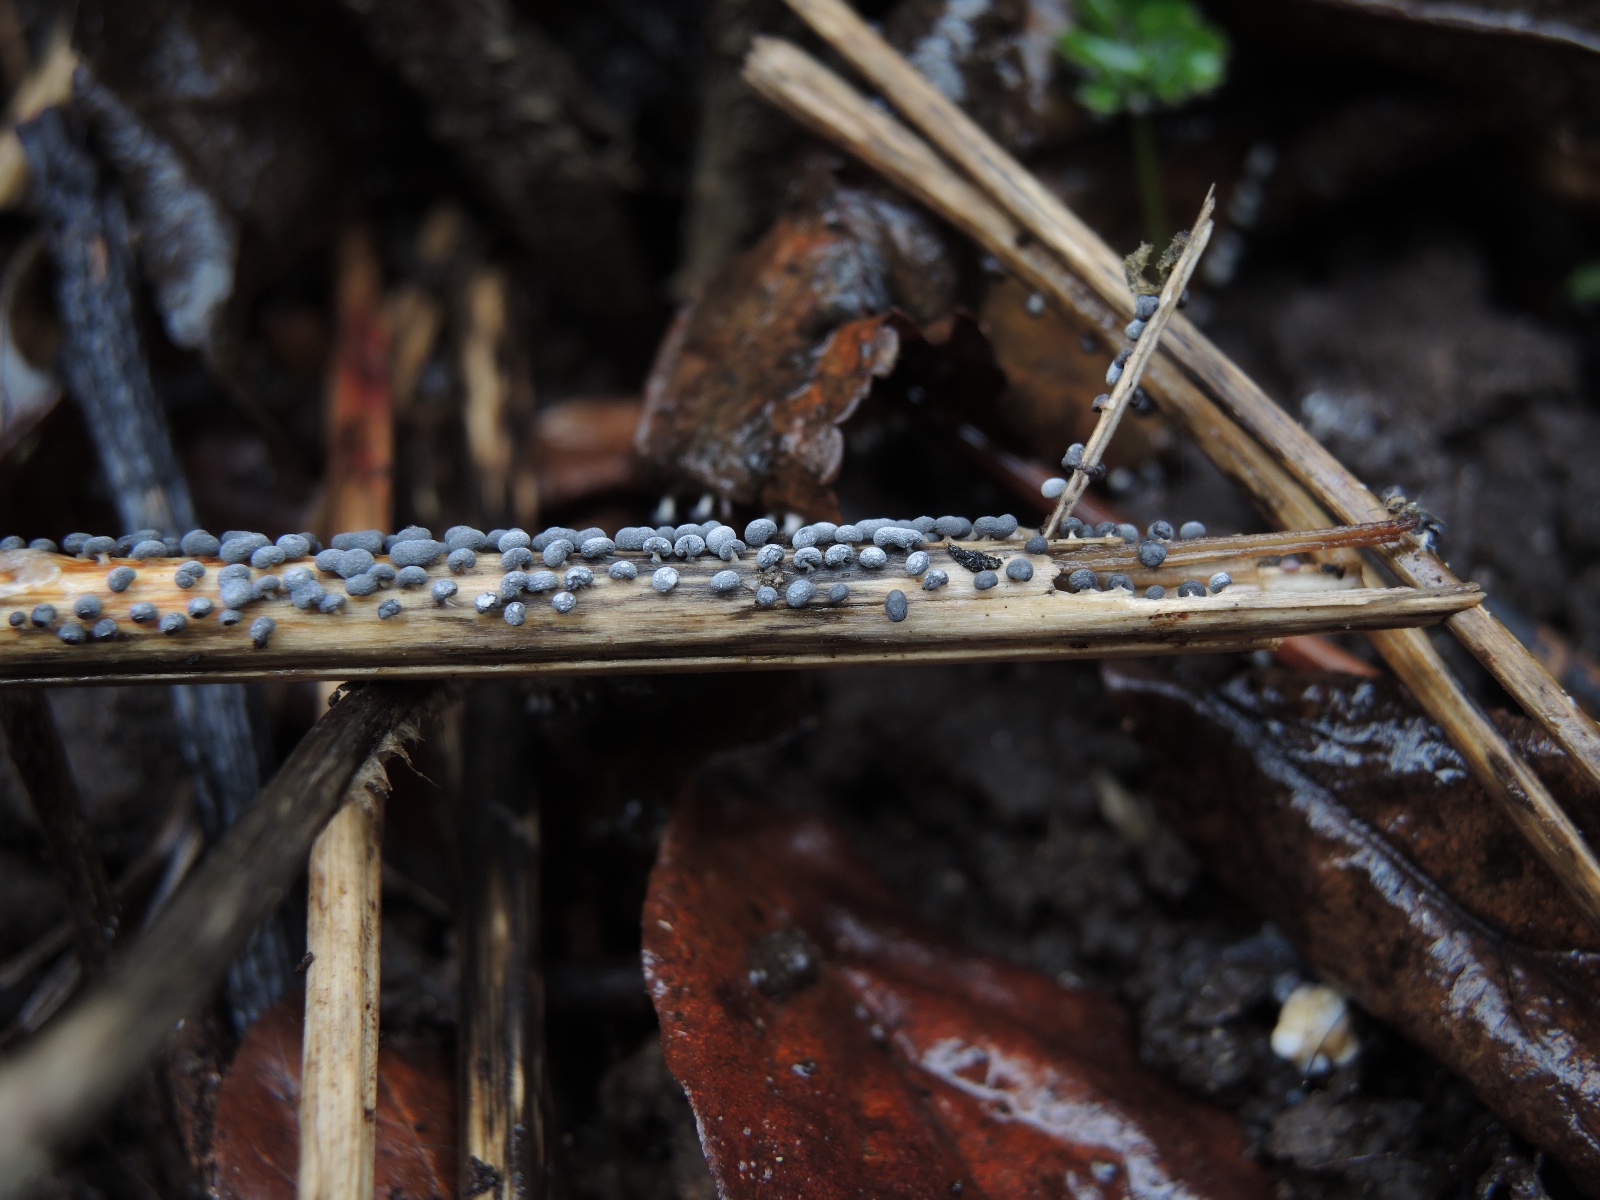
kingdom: Protozoa
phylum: Mycetozoa
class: Myxomycetes
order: Physarales
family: Didymiaceae
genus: Didymium
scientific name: Didymium squamulosum
